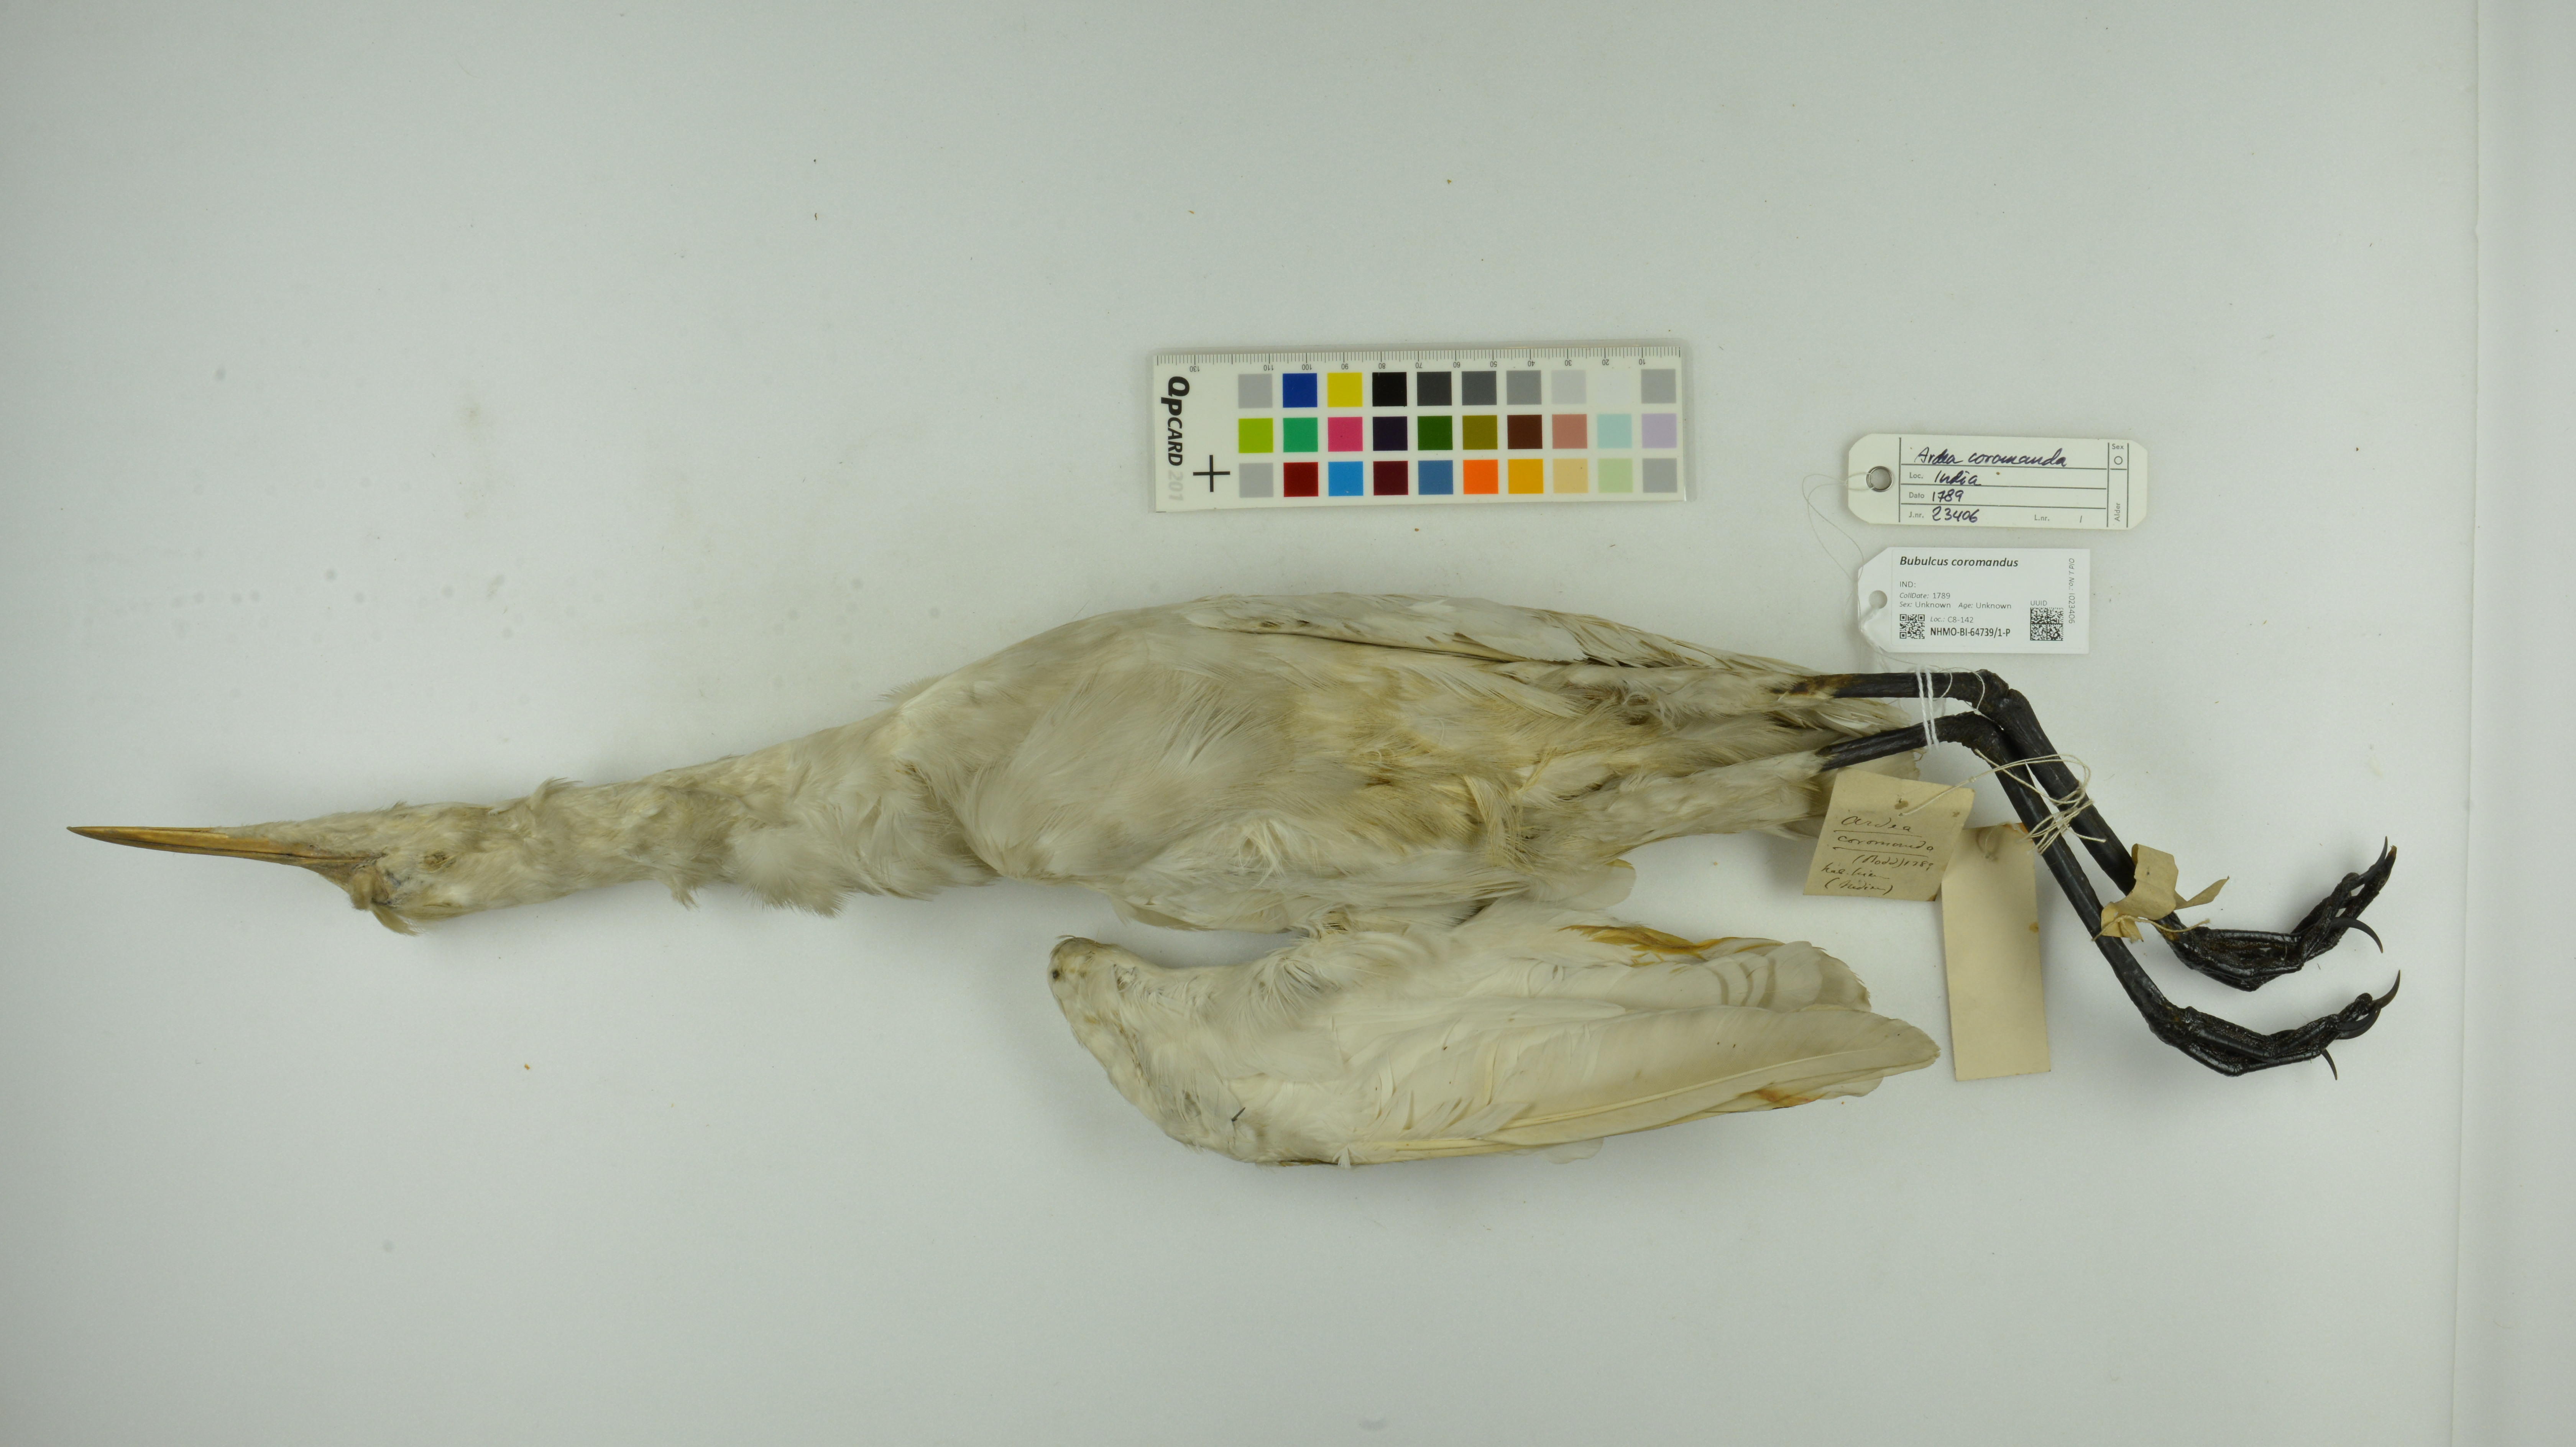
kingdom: Animalia
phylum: Chordata
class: Aves
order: Pelecaniformes
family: Ardeidae
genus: Bubulcus
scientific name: Bubulcus coromandus
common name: Eastern cattle egret
